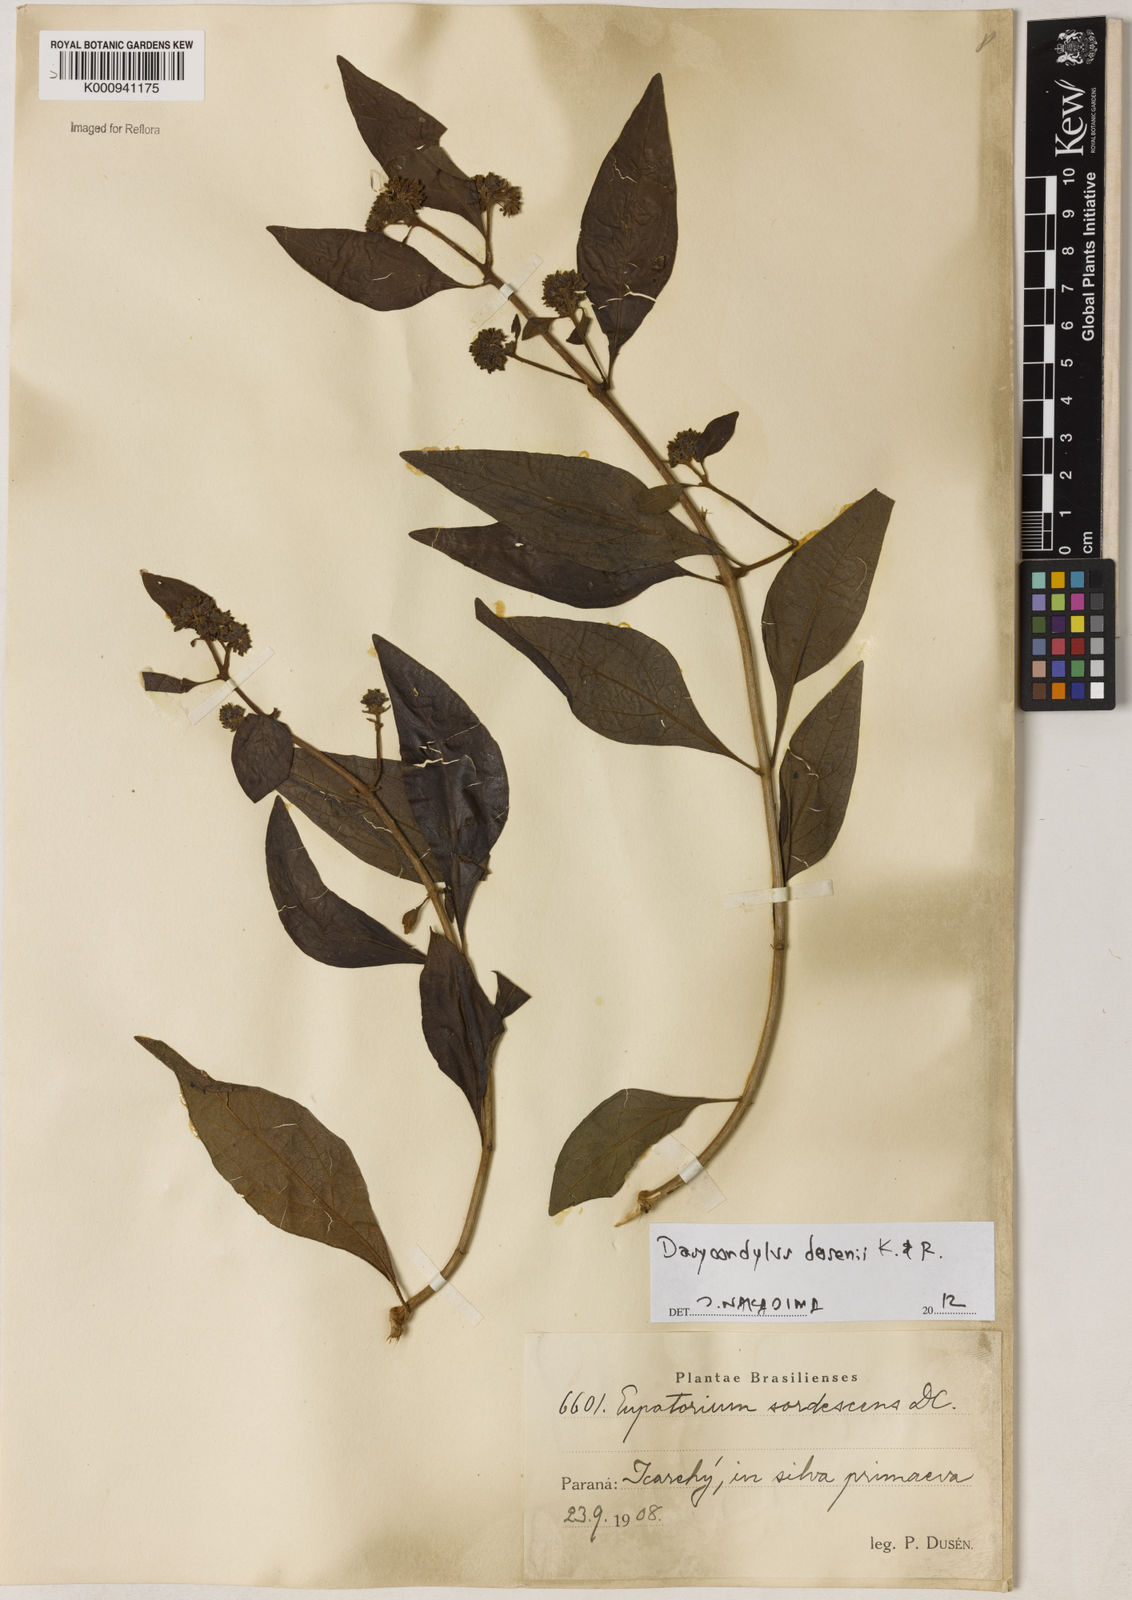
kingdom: Plantae
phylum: Tracheophyta
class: Magnoliopsida
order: Asterales
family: Asteraceae
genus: Dasycondylus
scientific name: Dasycondylus dusenii
